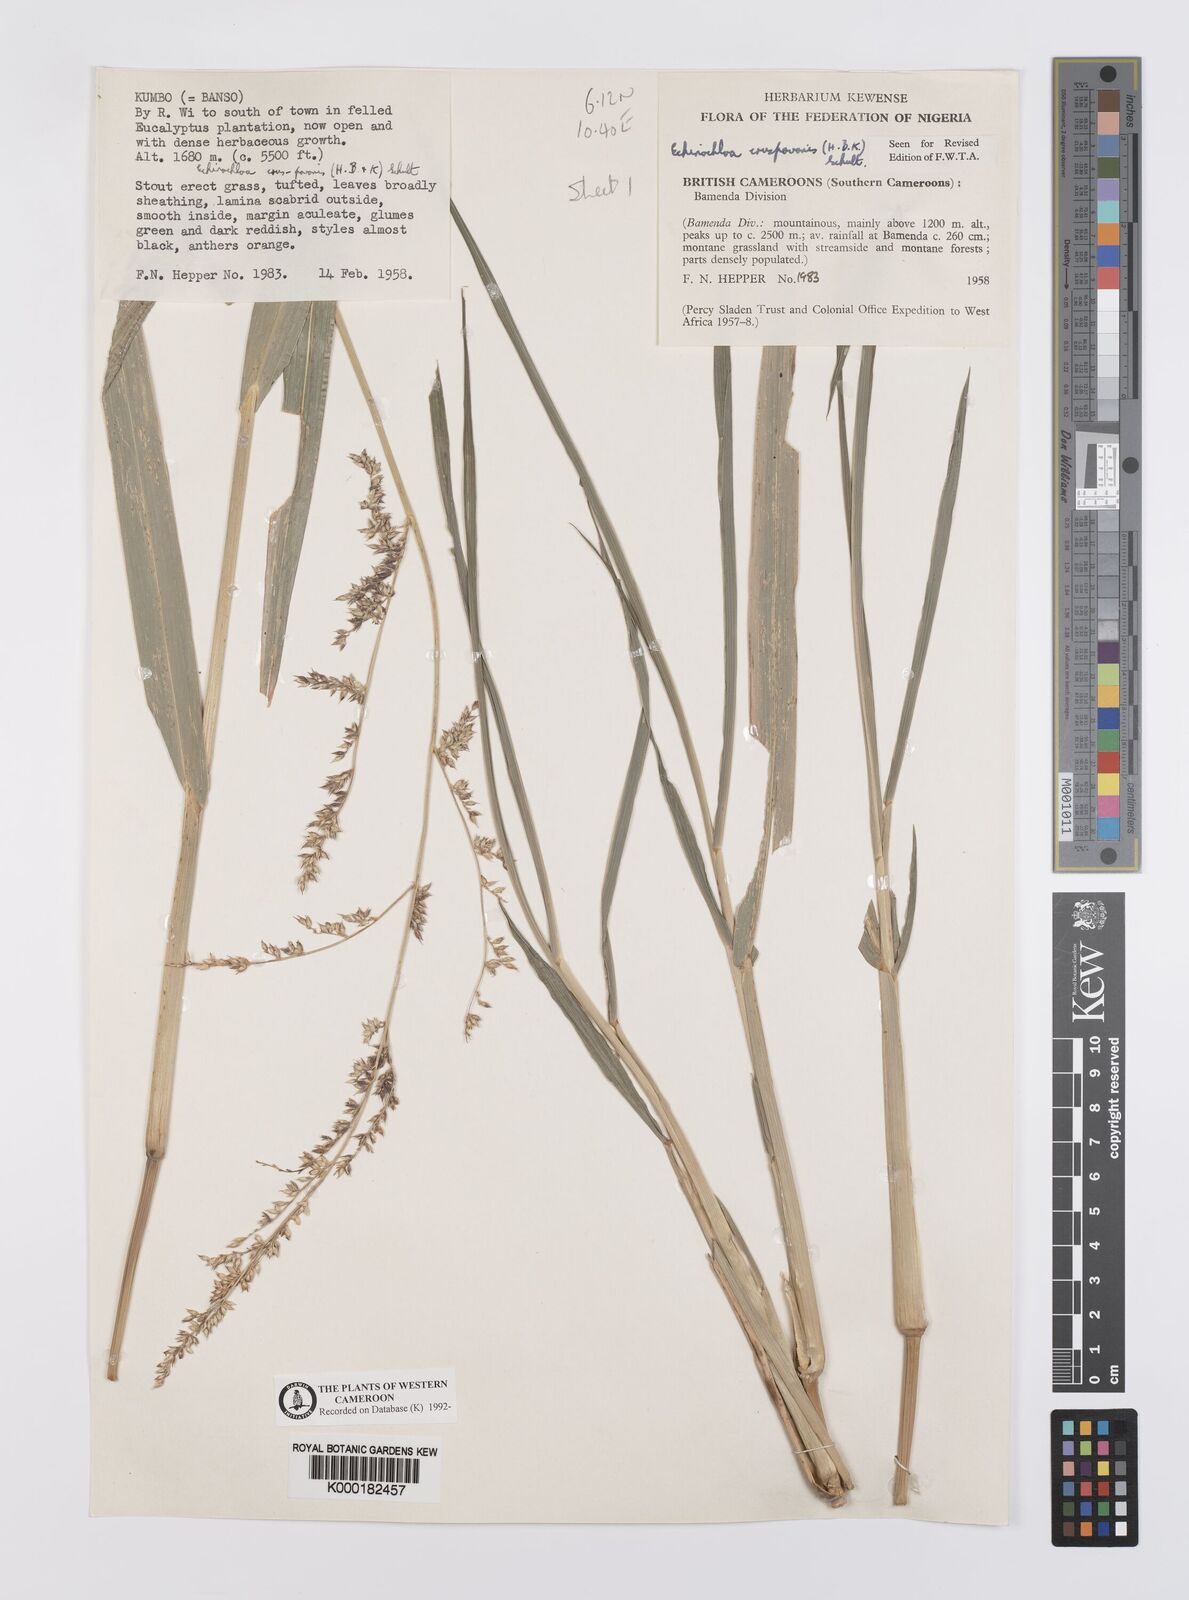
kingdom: Plantae
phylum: Tracheophyta
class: Liliopsida
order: Poales
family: Poaceae
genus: Echinochloa
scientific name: Echinochloa crus-pavonis
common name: Gulf cockspur grass
